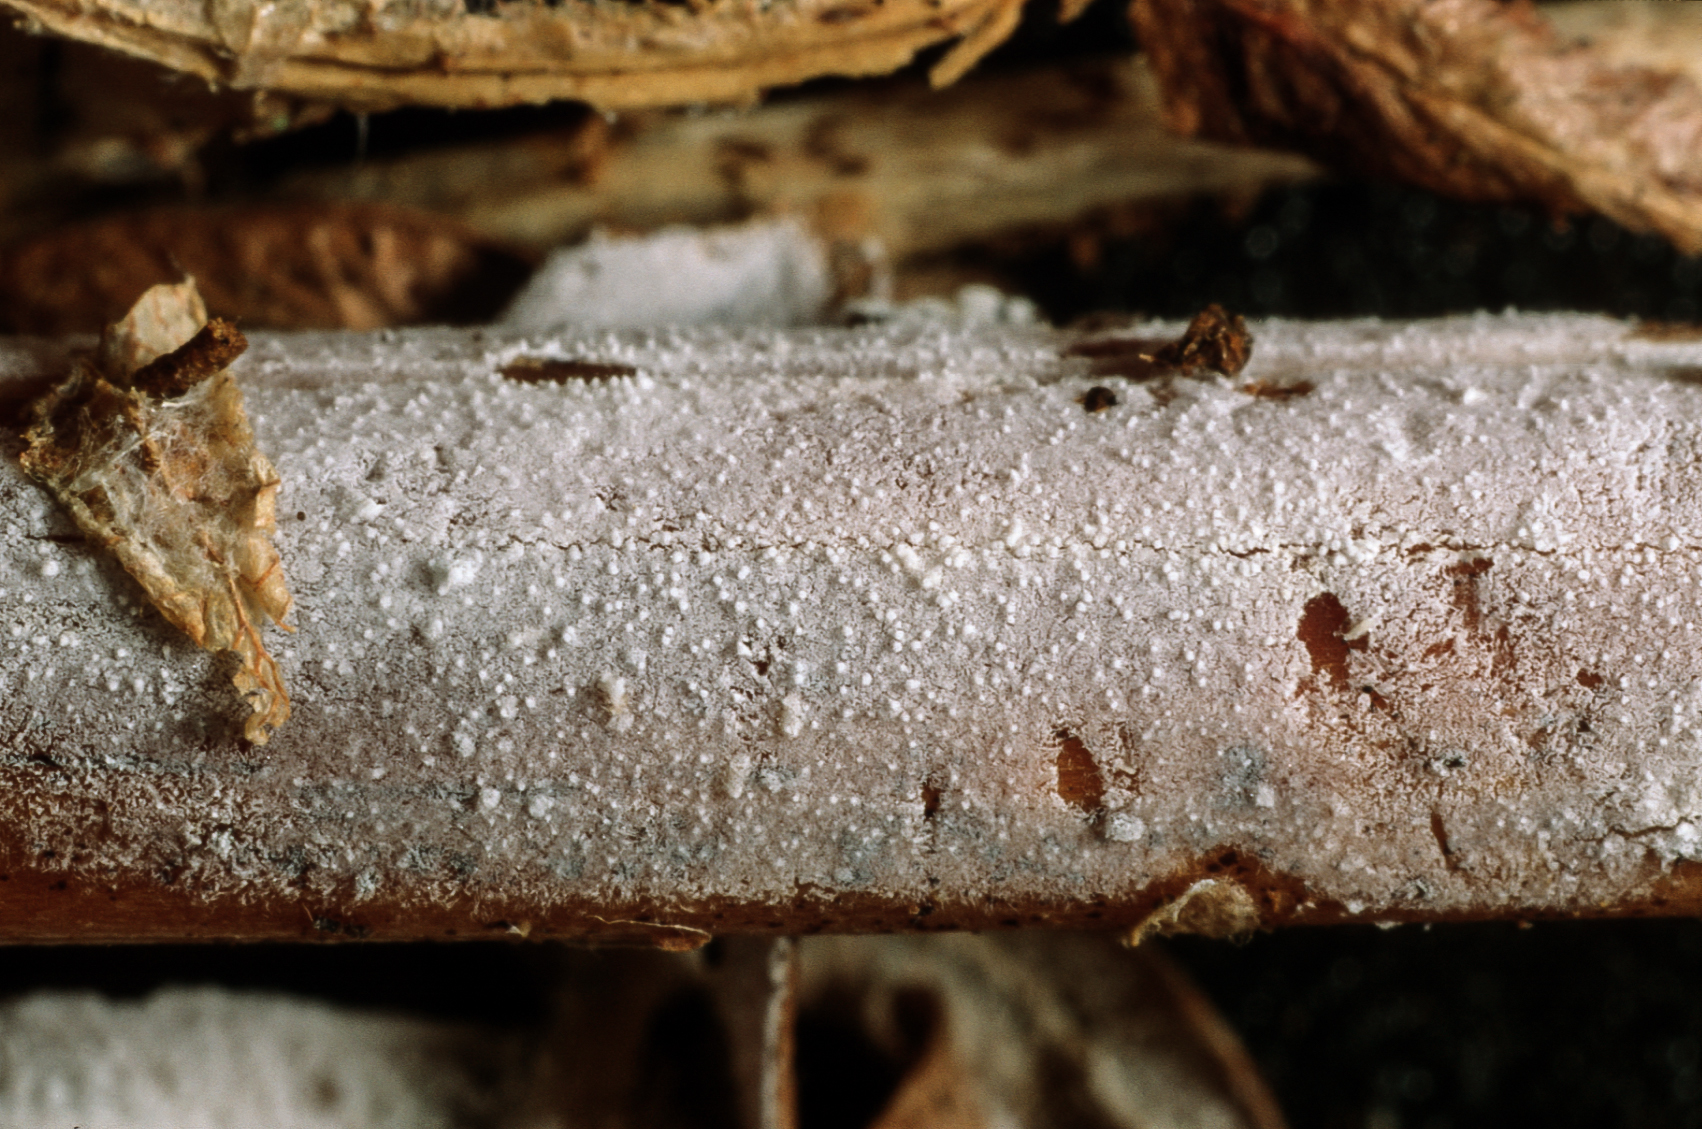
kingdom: Fungi
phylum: Basidiomycota
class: Agaricomycetes
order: Hymenochaetales
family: Schizoporaceae
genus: Xylodon
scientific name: Xylodon detriticus
